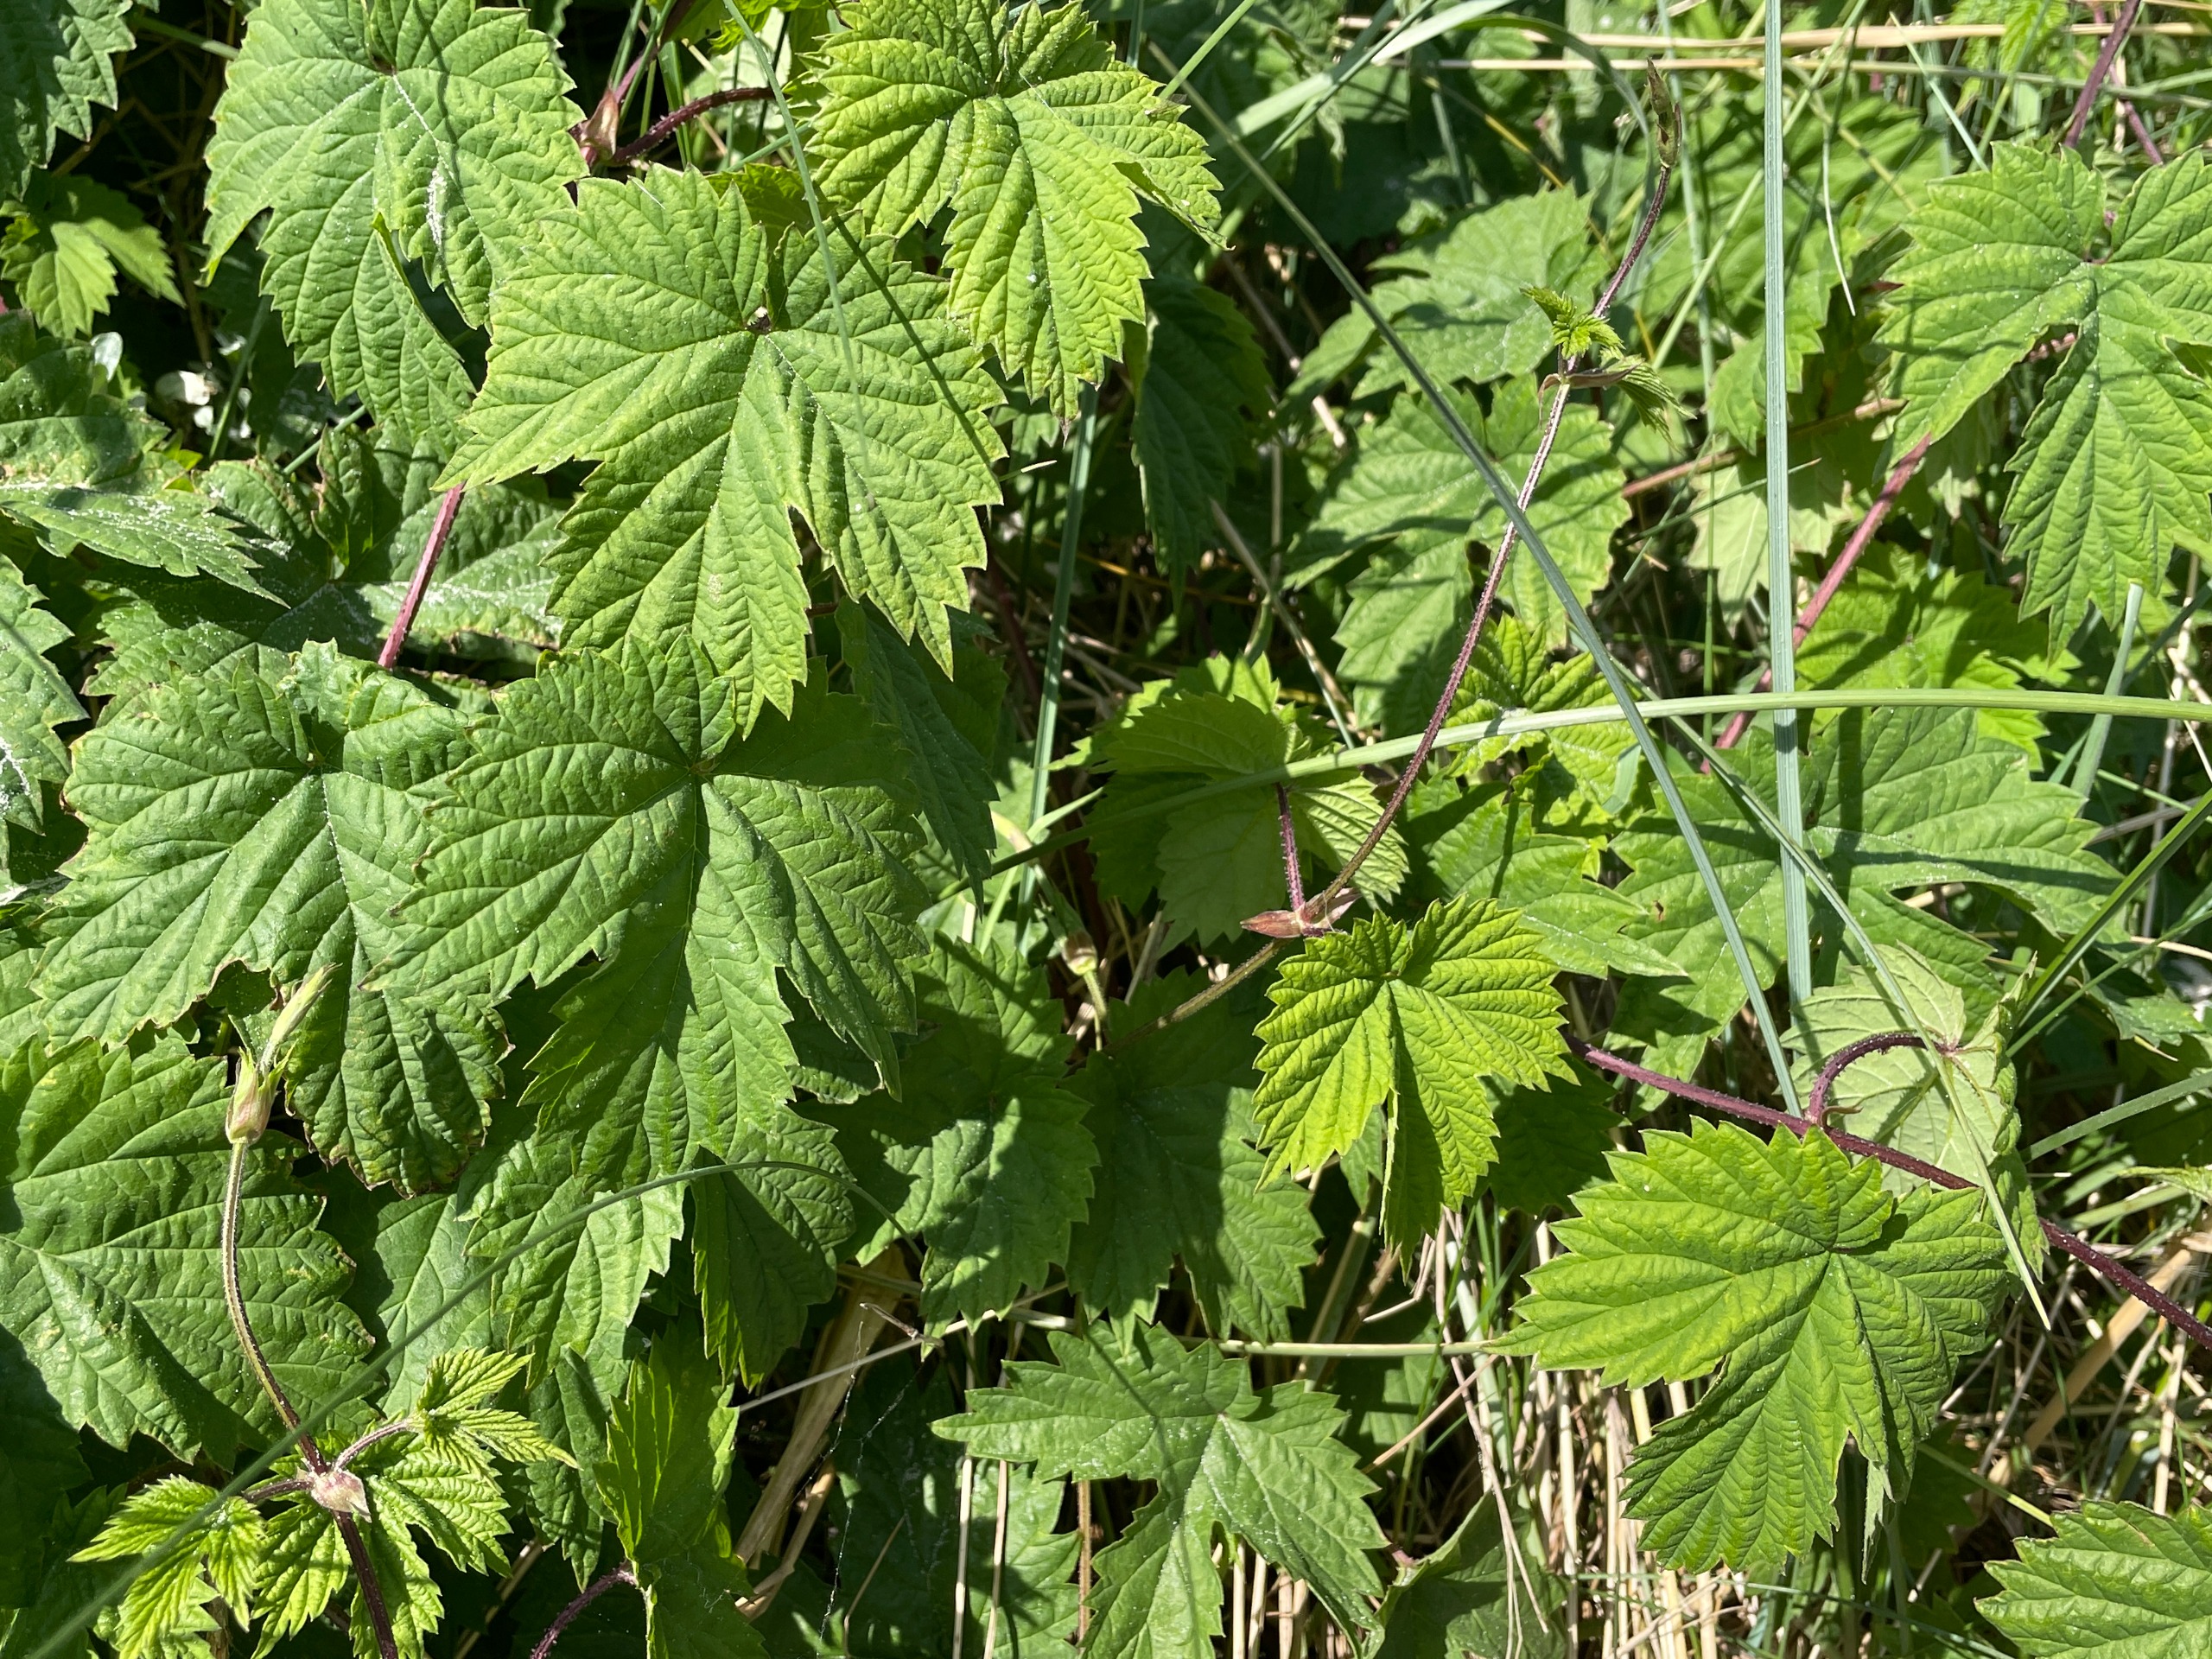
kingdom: Plantae
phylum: Tracheophyta
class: Magnoliopsida
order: Rosales
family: Cannabaceae
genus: Humulus
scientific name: Humulus lupulus
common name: Humle
